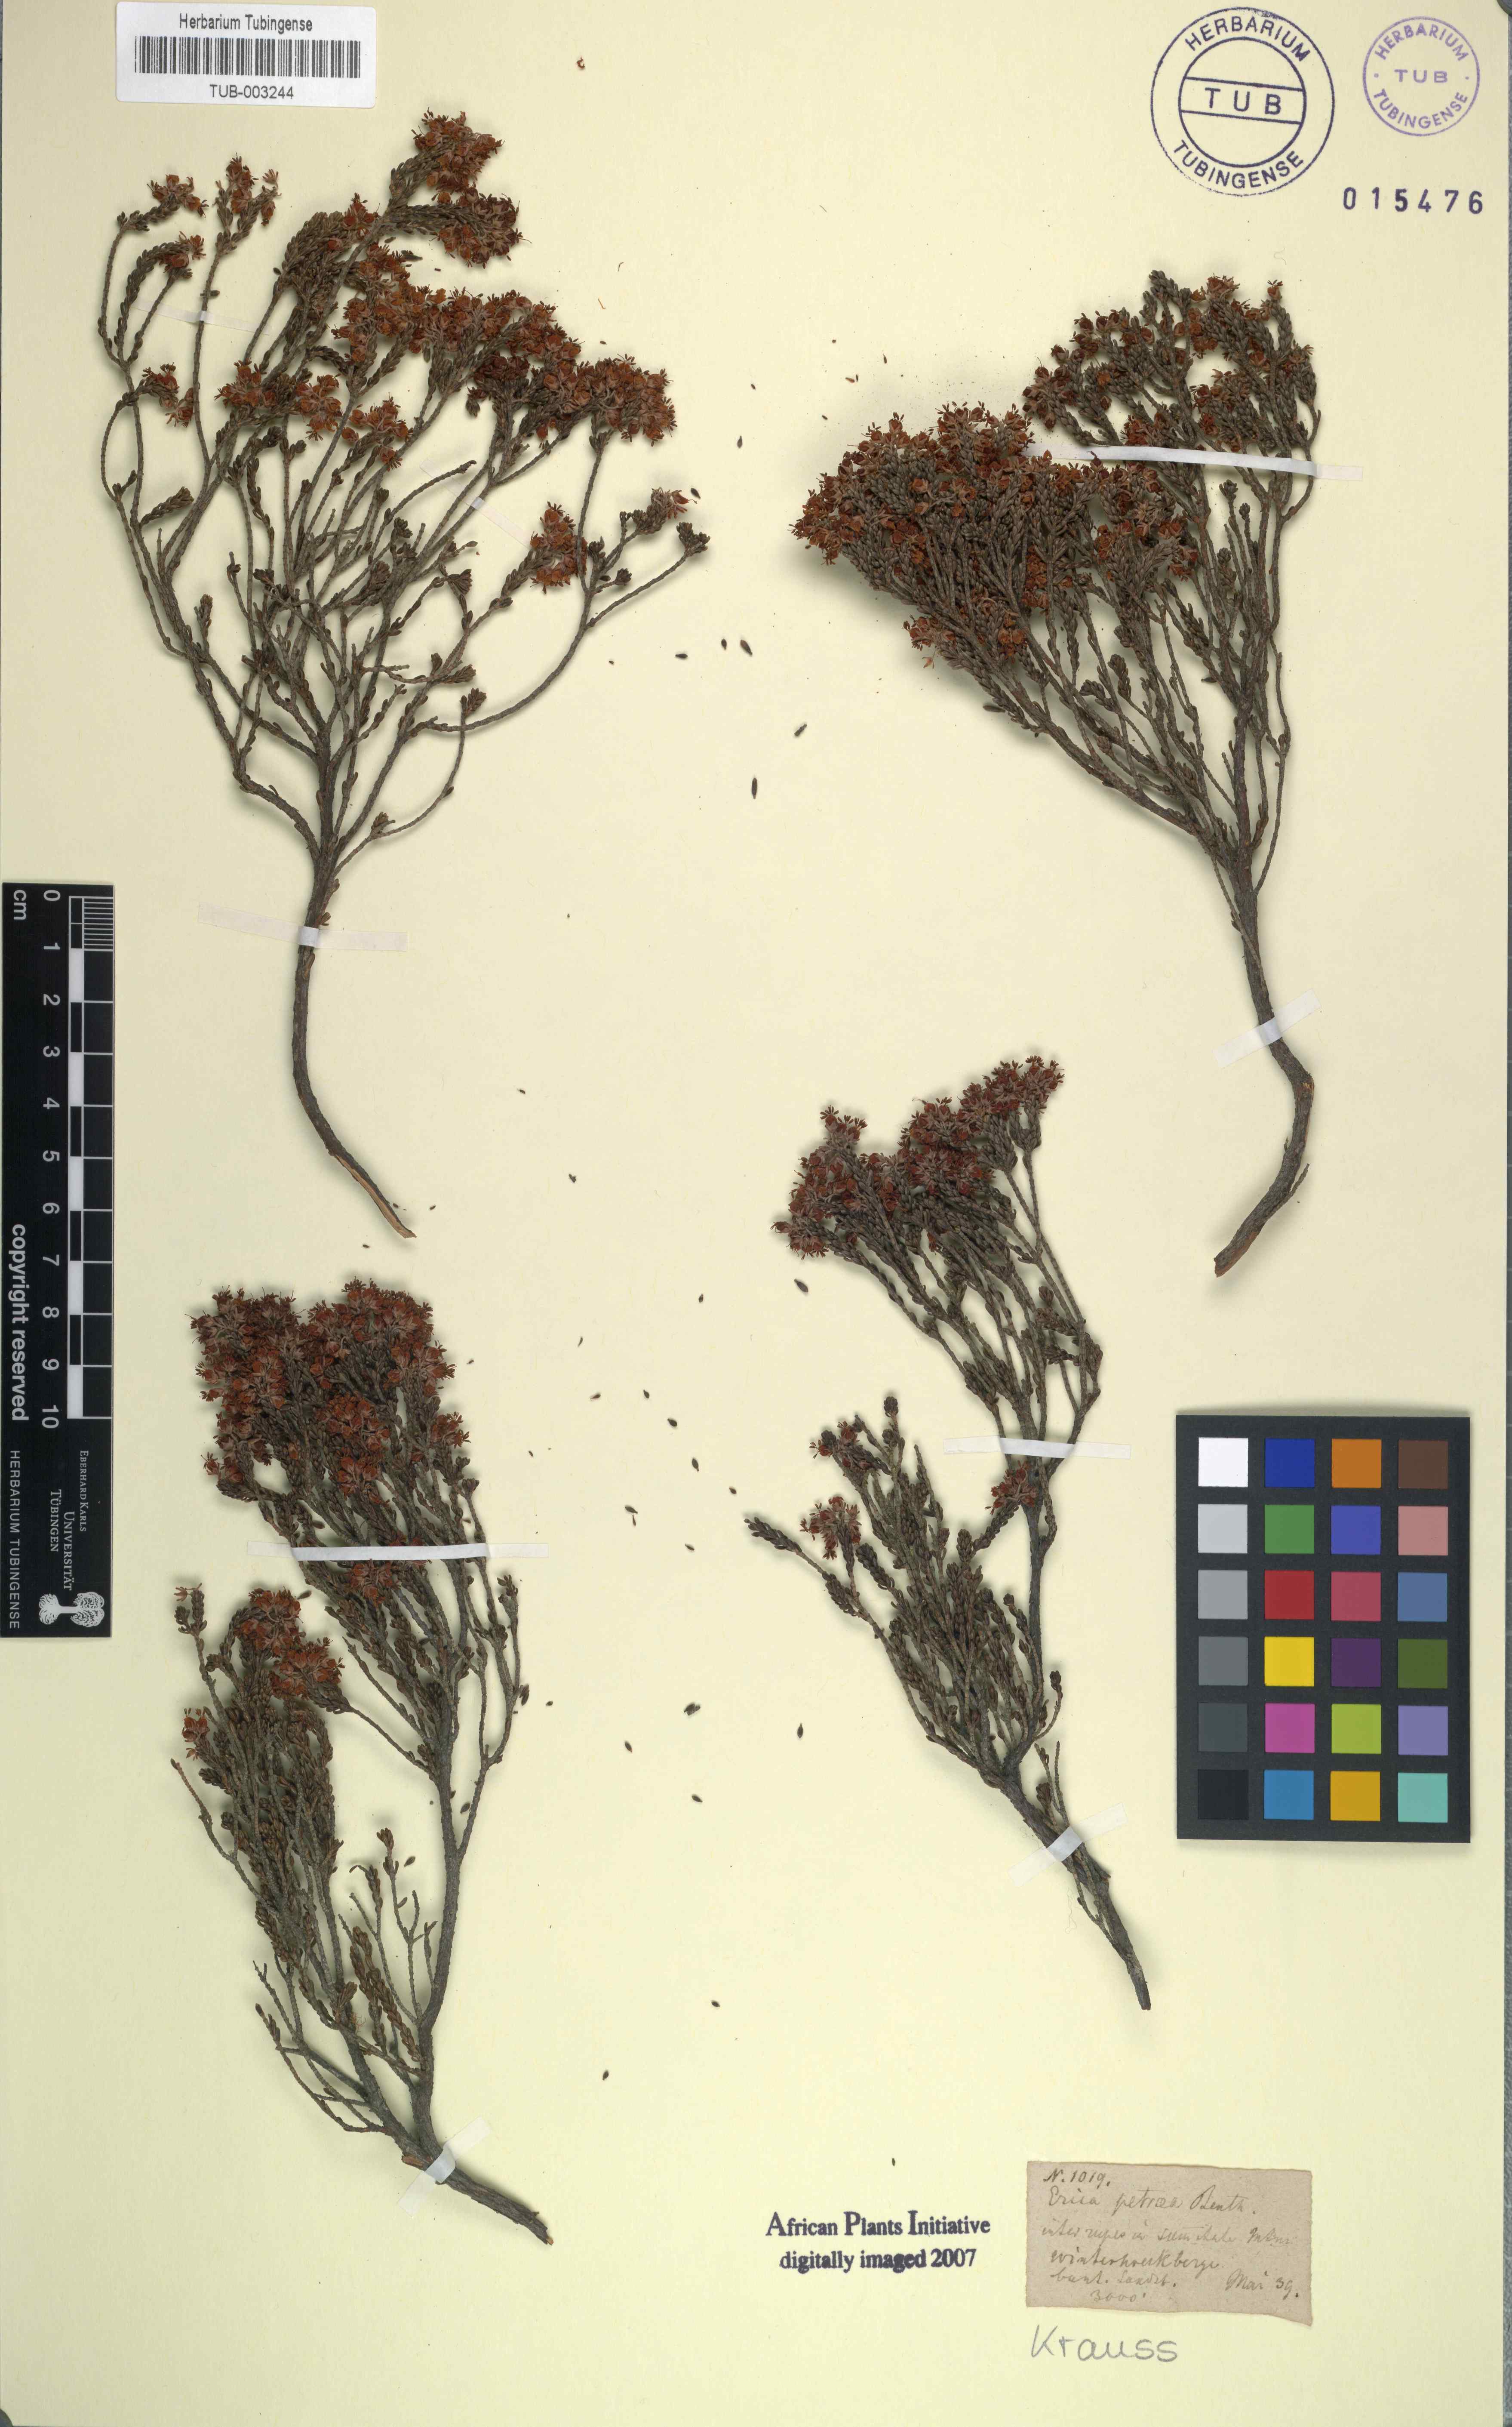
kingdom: Plantae
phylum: Tracheophyta
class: Magnoliopsida
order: Ericales
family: Ericaceae
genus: Erica
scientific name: Erica petraea
